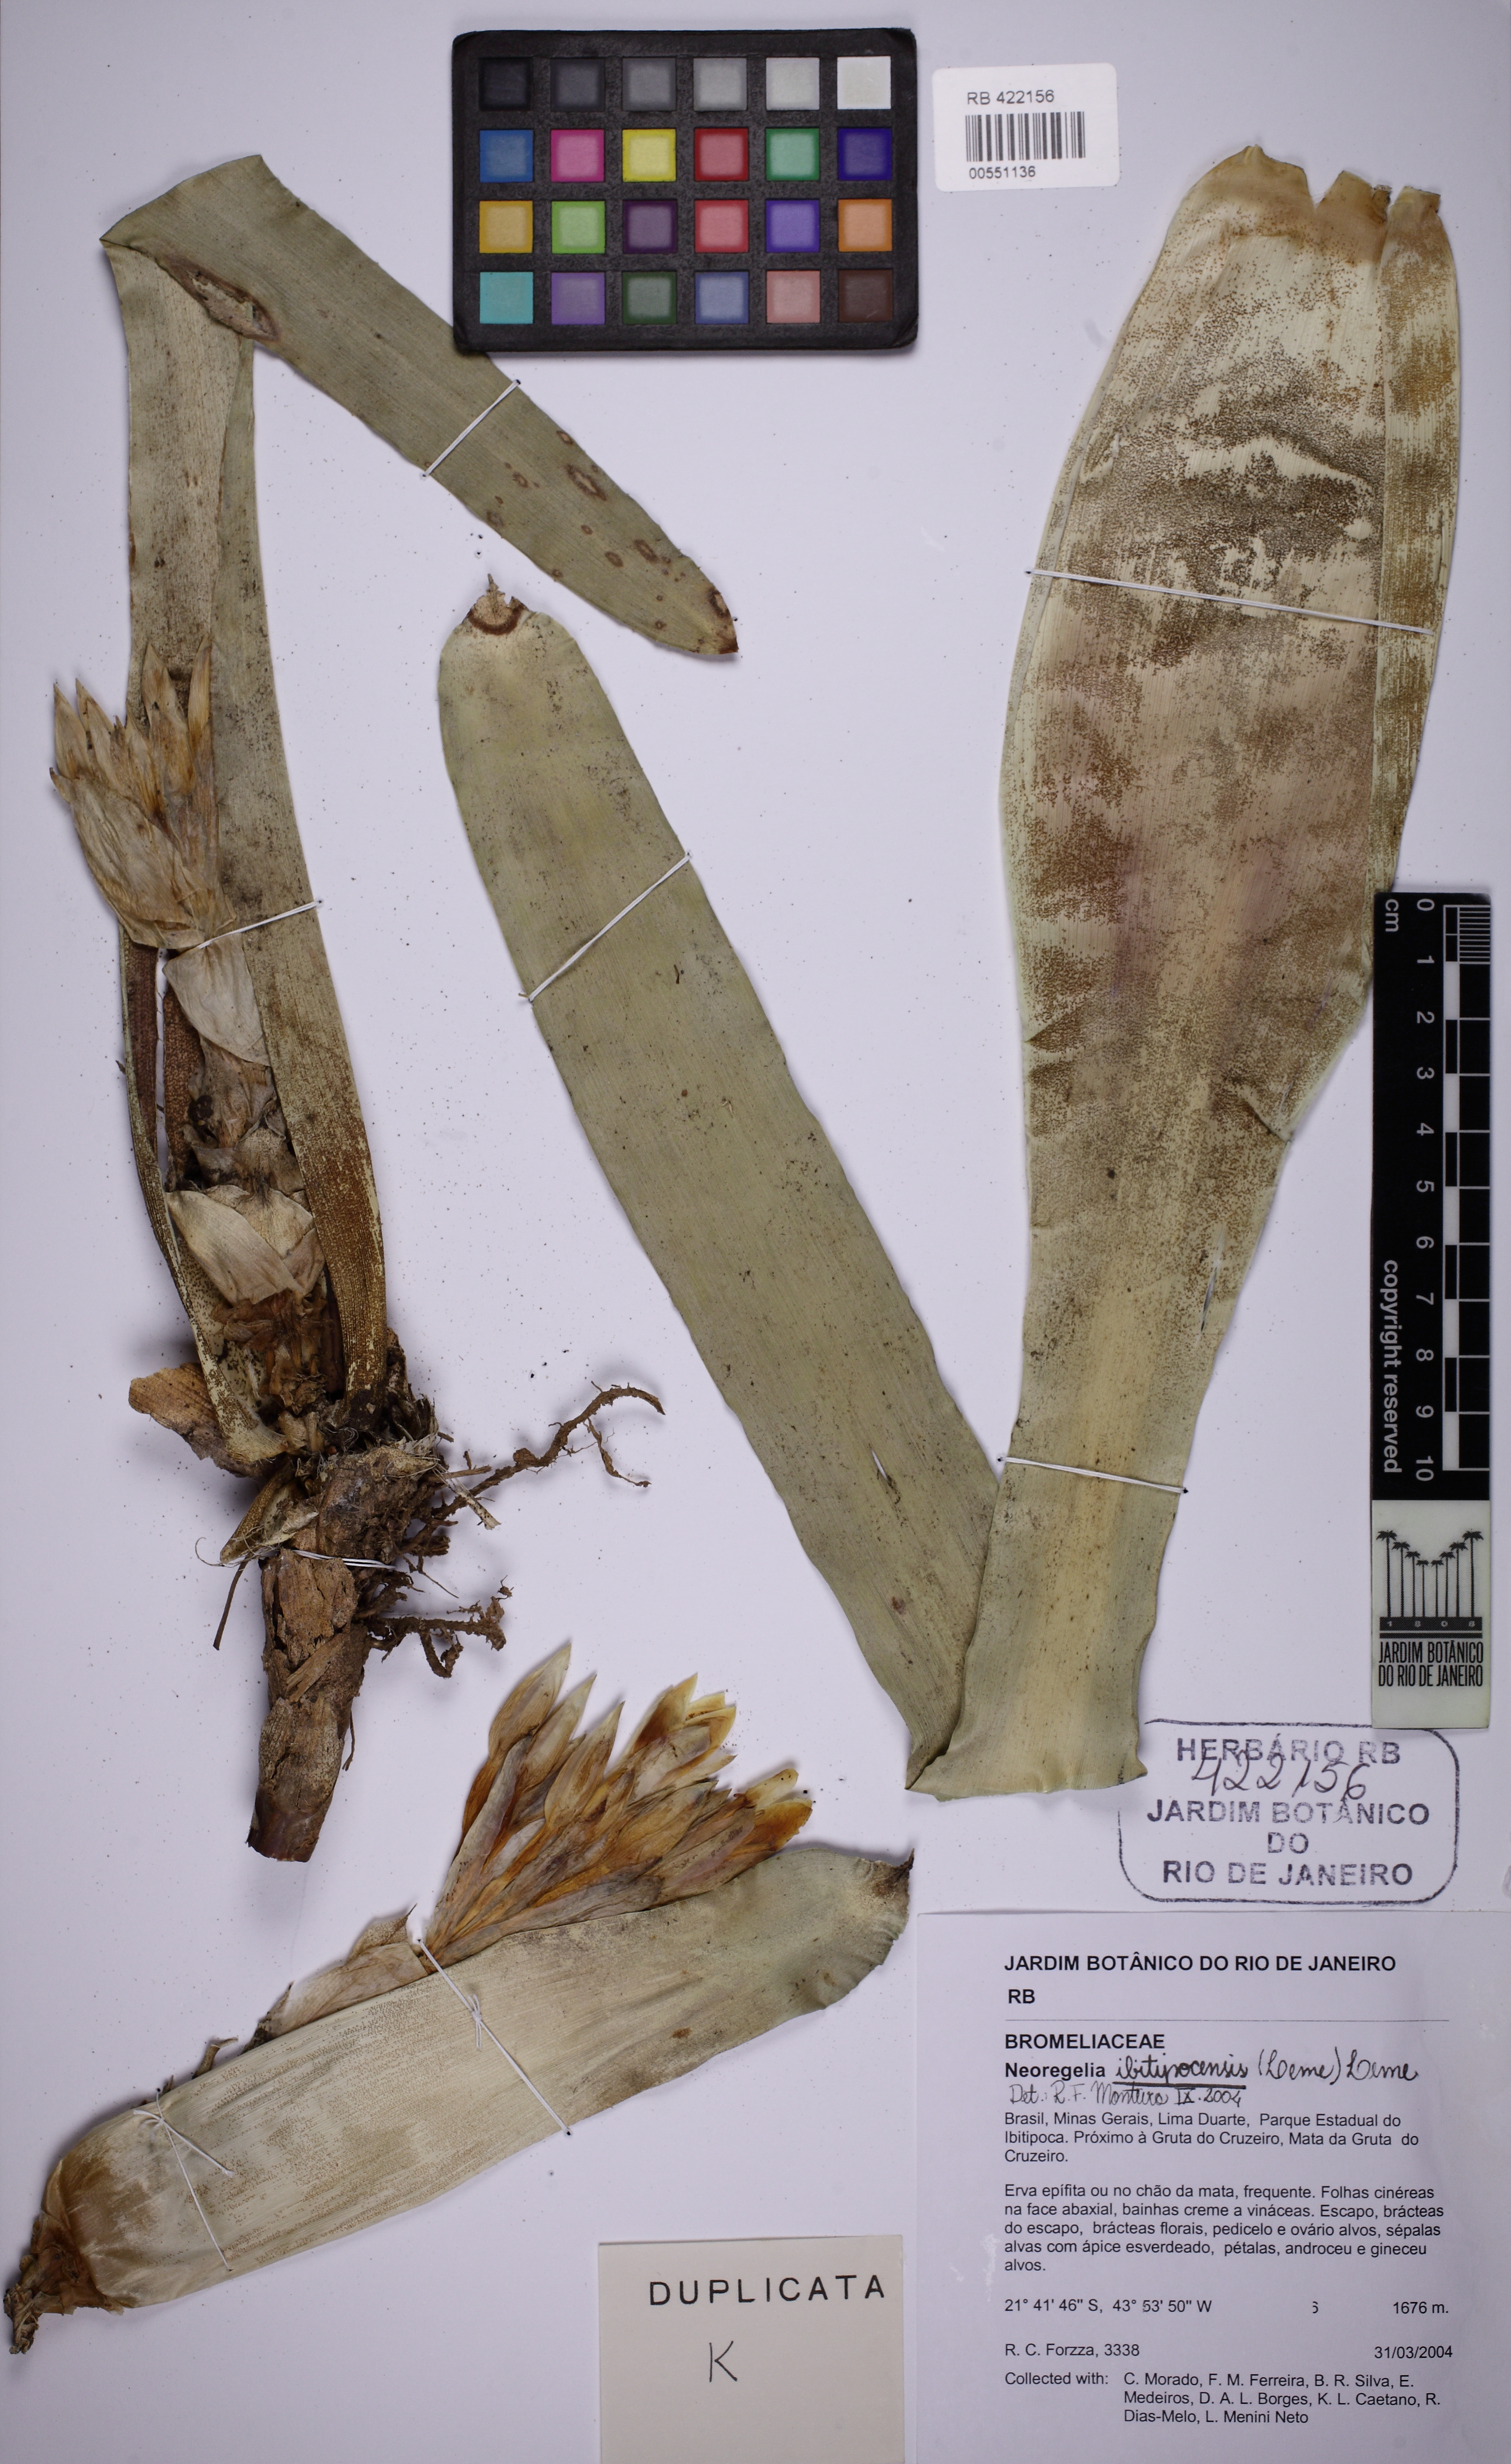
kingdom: Plantae
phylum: Tracheophyta
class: Liliopsida
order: Poales
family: Bromeliaceae
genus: Neoregelia
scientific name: Neoregelia ibitipocensis
